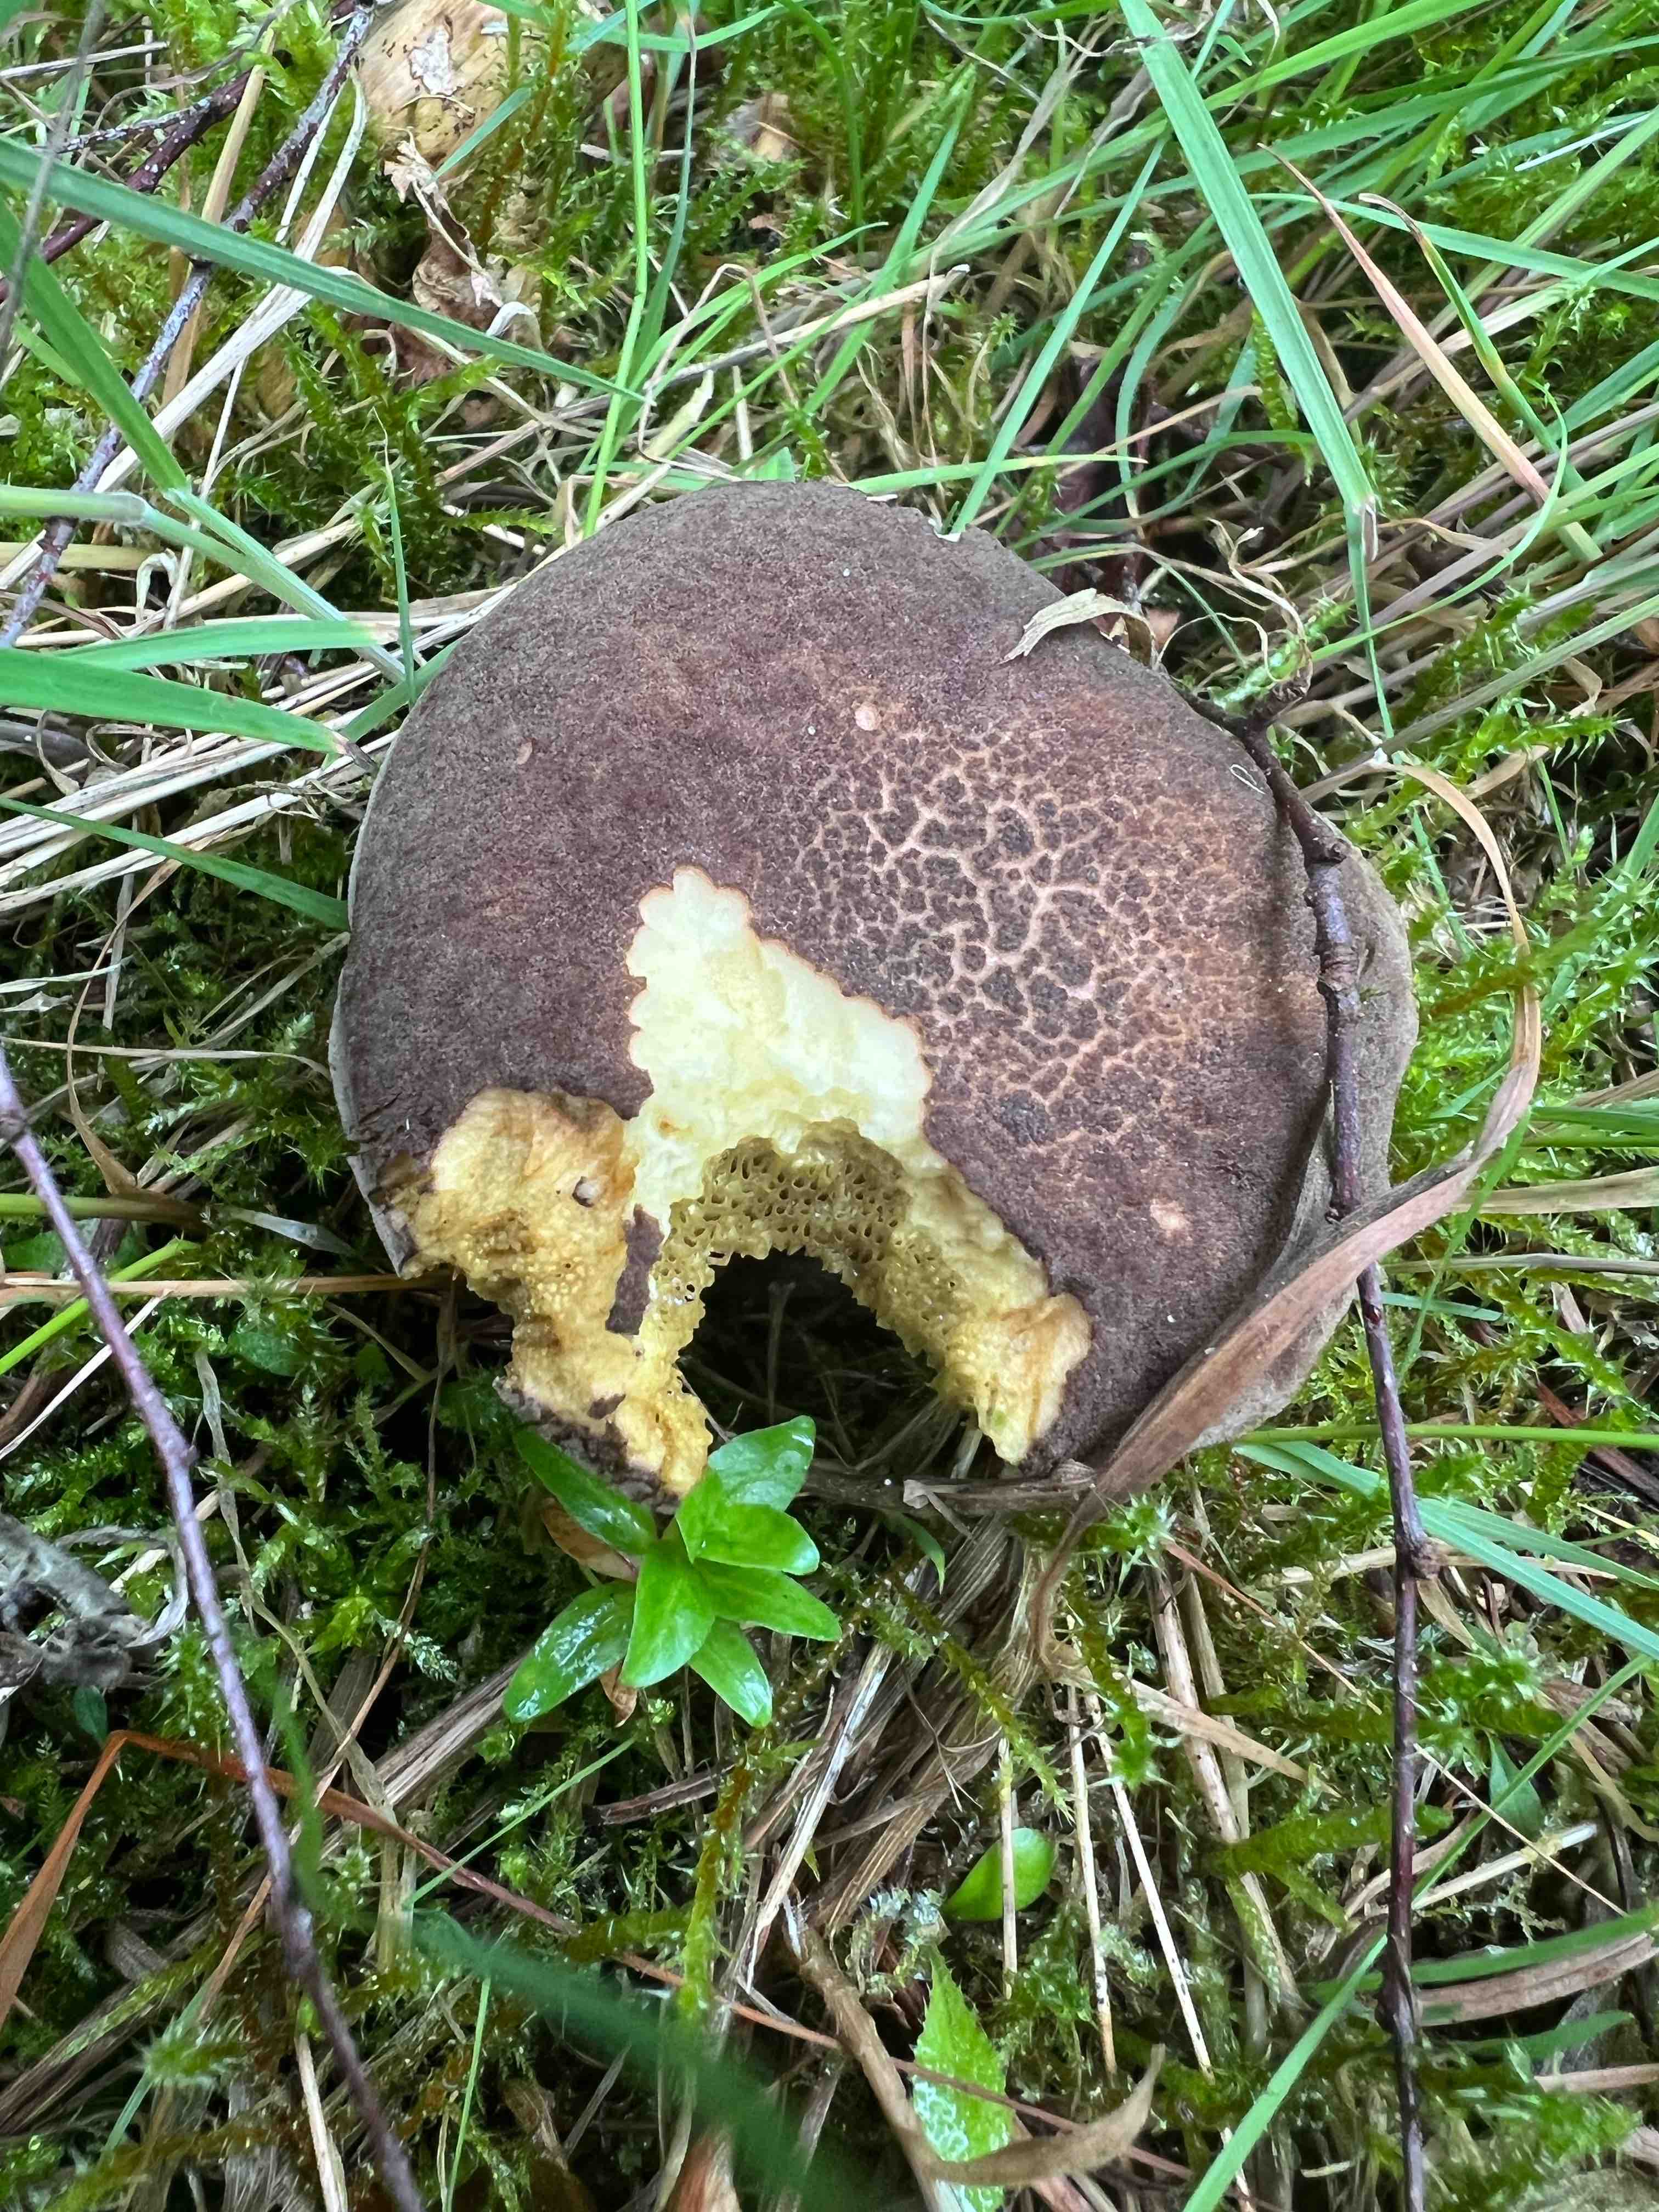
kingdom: Fungi
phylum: Basidiomycota
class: Agaricomycetes
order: Boletales
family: Boletaceae
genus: Xerocomellus
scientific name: Xerocomellus chrysenteron
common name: rødsprukken rørhat
